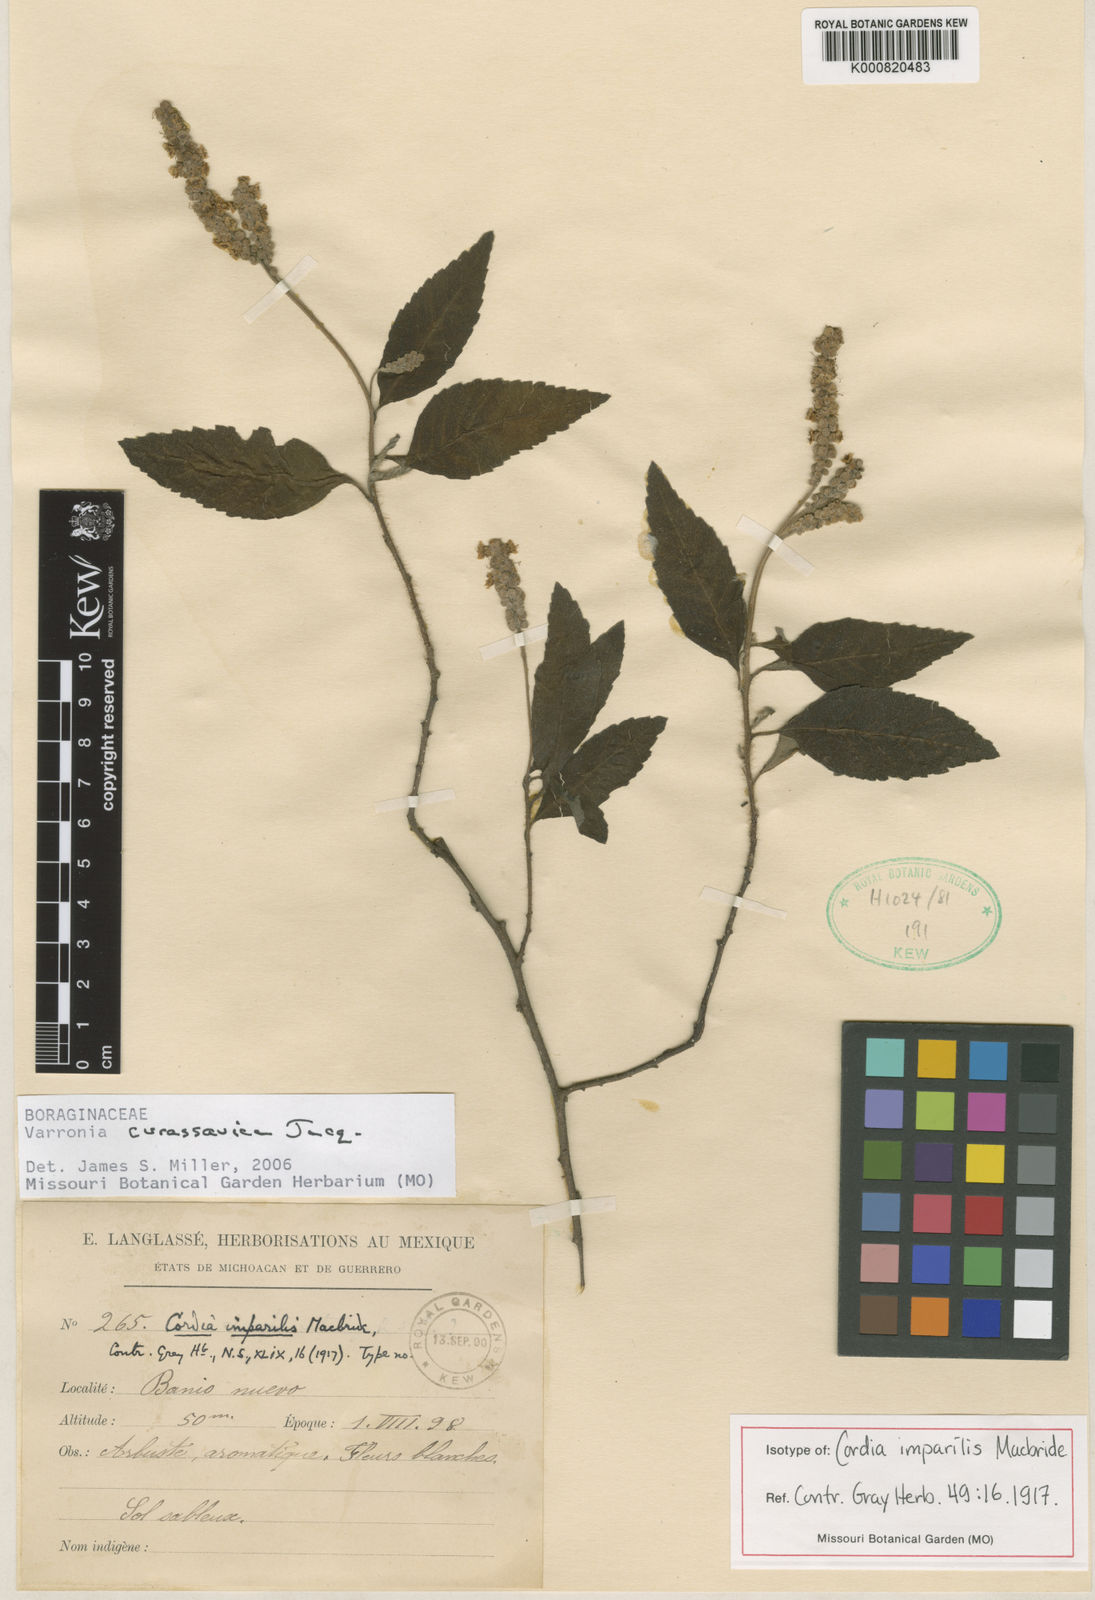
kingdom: Plantae
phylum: Tracheophyta
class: Magnoliopsida
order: Boraginales
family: Cordiaceae
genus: Varronia
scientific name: Varronia curassavica
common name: Black sage
